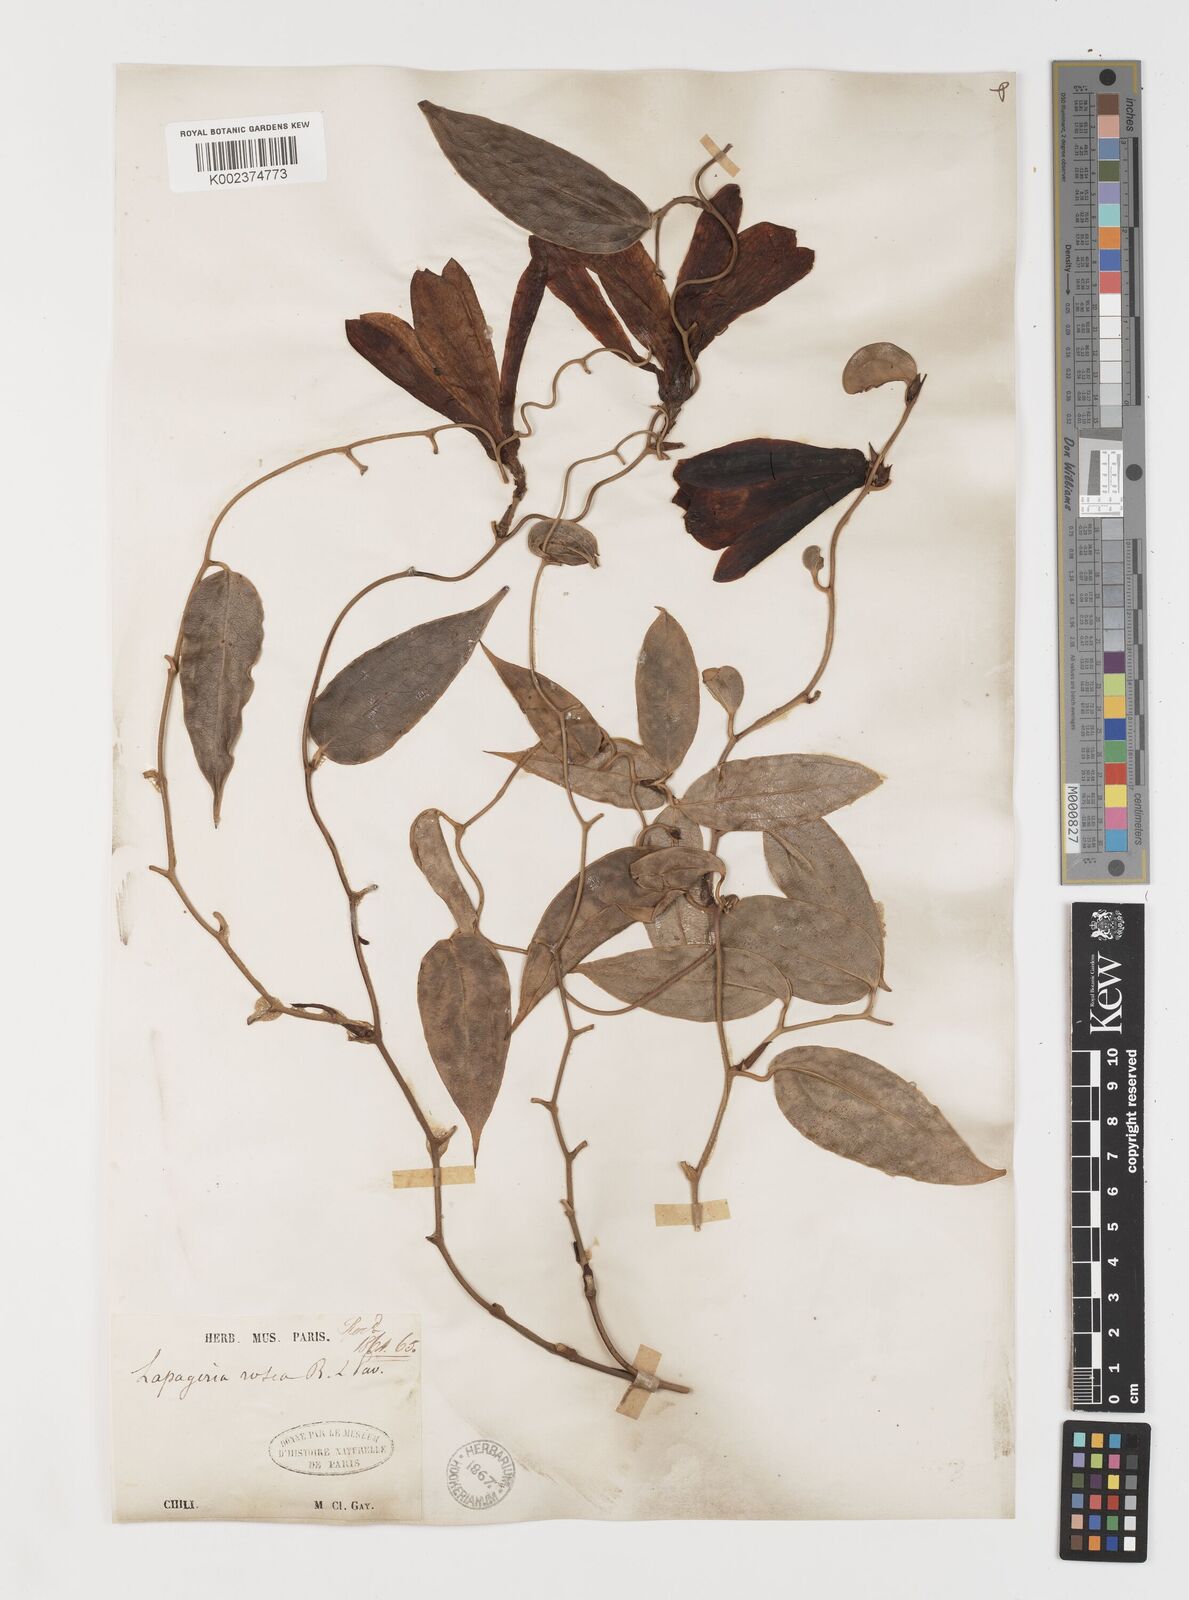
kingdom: Plantae
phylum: Tracheophyta
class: Liliopsida
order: Liliales
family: Philesiaceae
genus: Lapageria
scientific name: Lapageria rosea
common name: Chilean-bellflower
